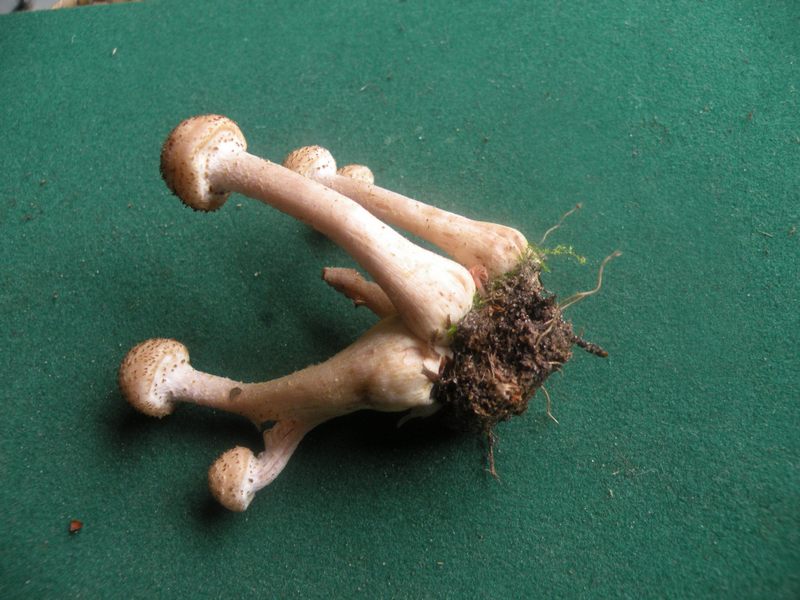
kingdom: Fungi
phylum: Basidiomycota
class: Agaricomycetes
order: Agaricales
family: Physalacriaceae
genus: Armillaria
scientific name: Armillaria ostoyae
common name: mørk honningsvamp
